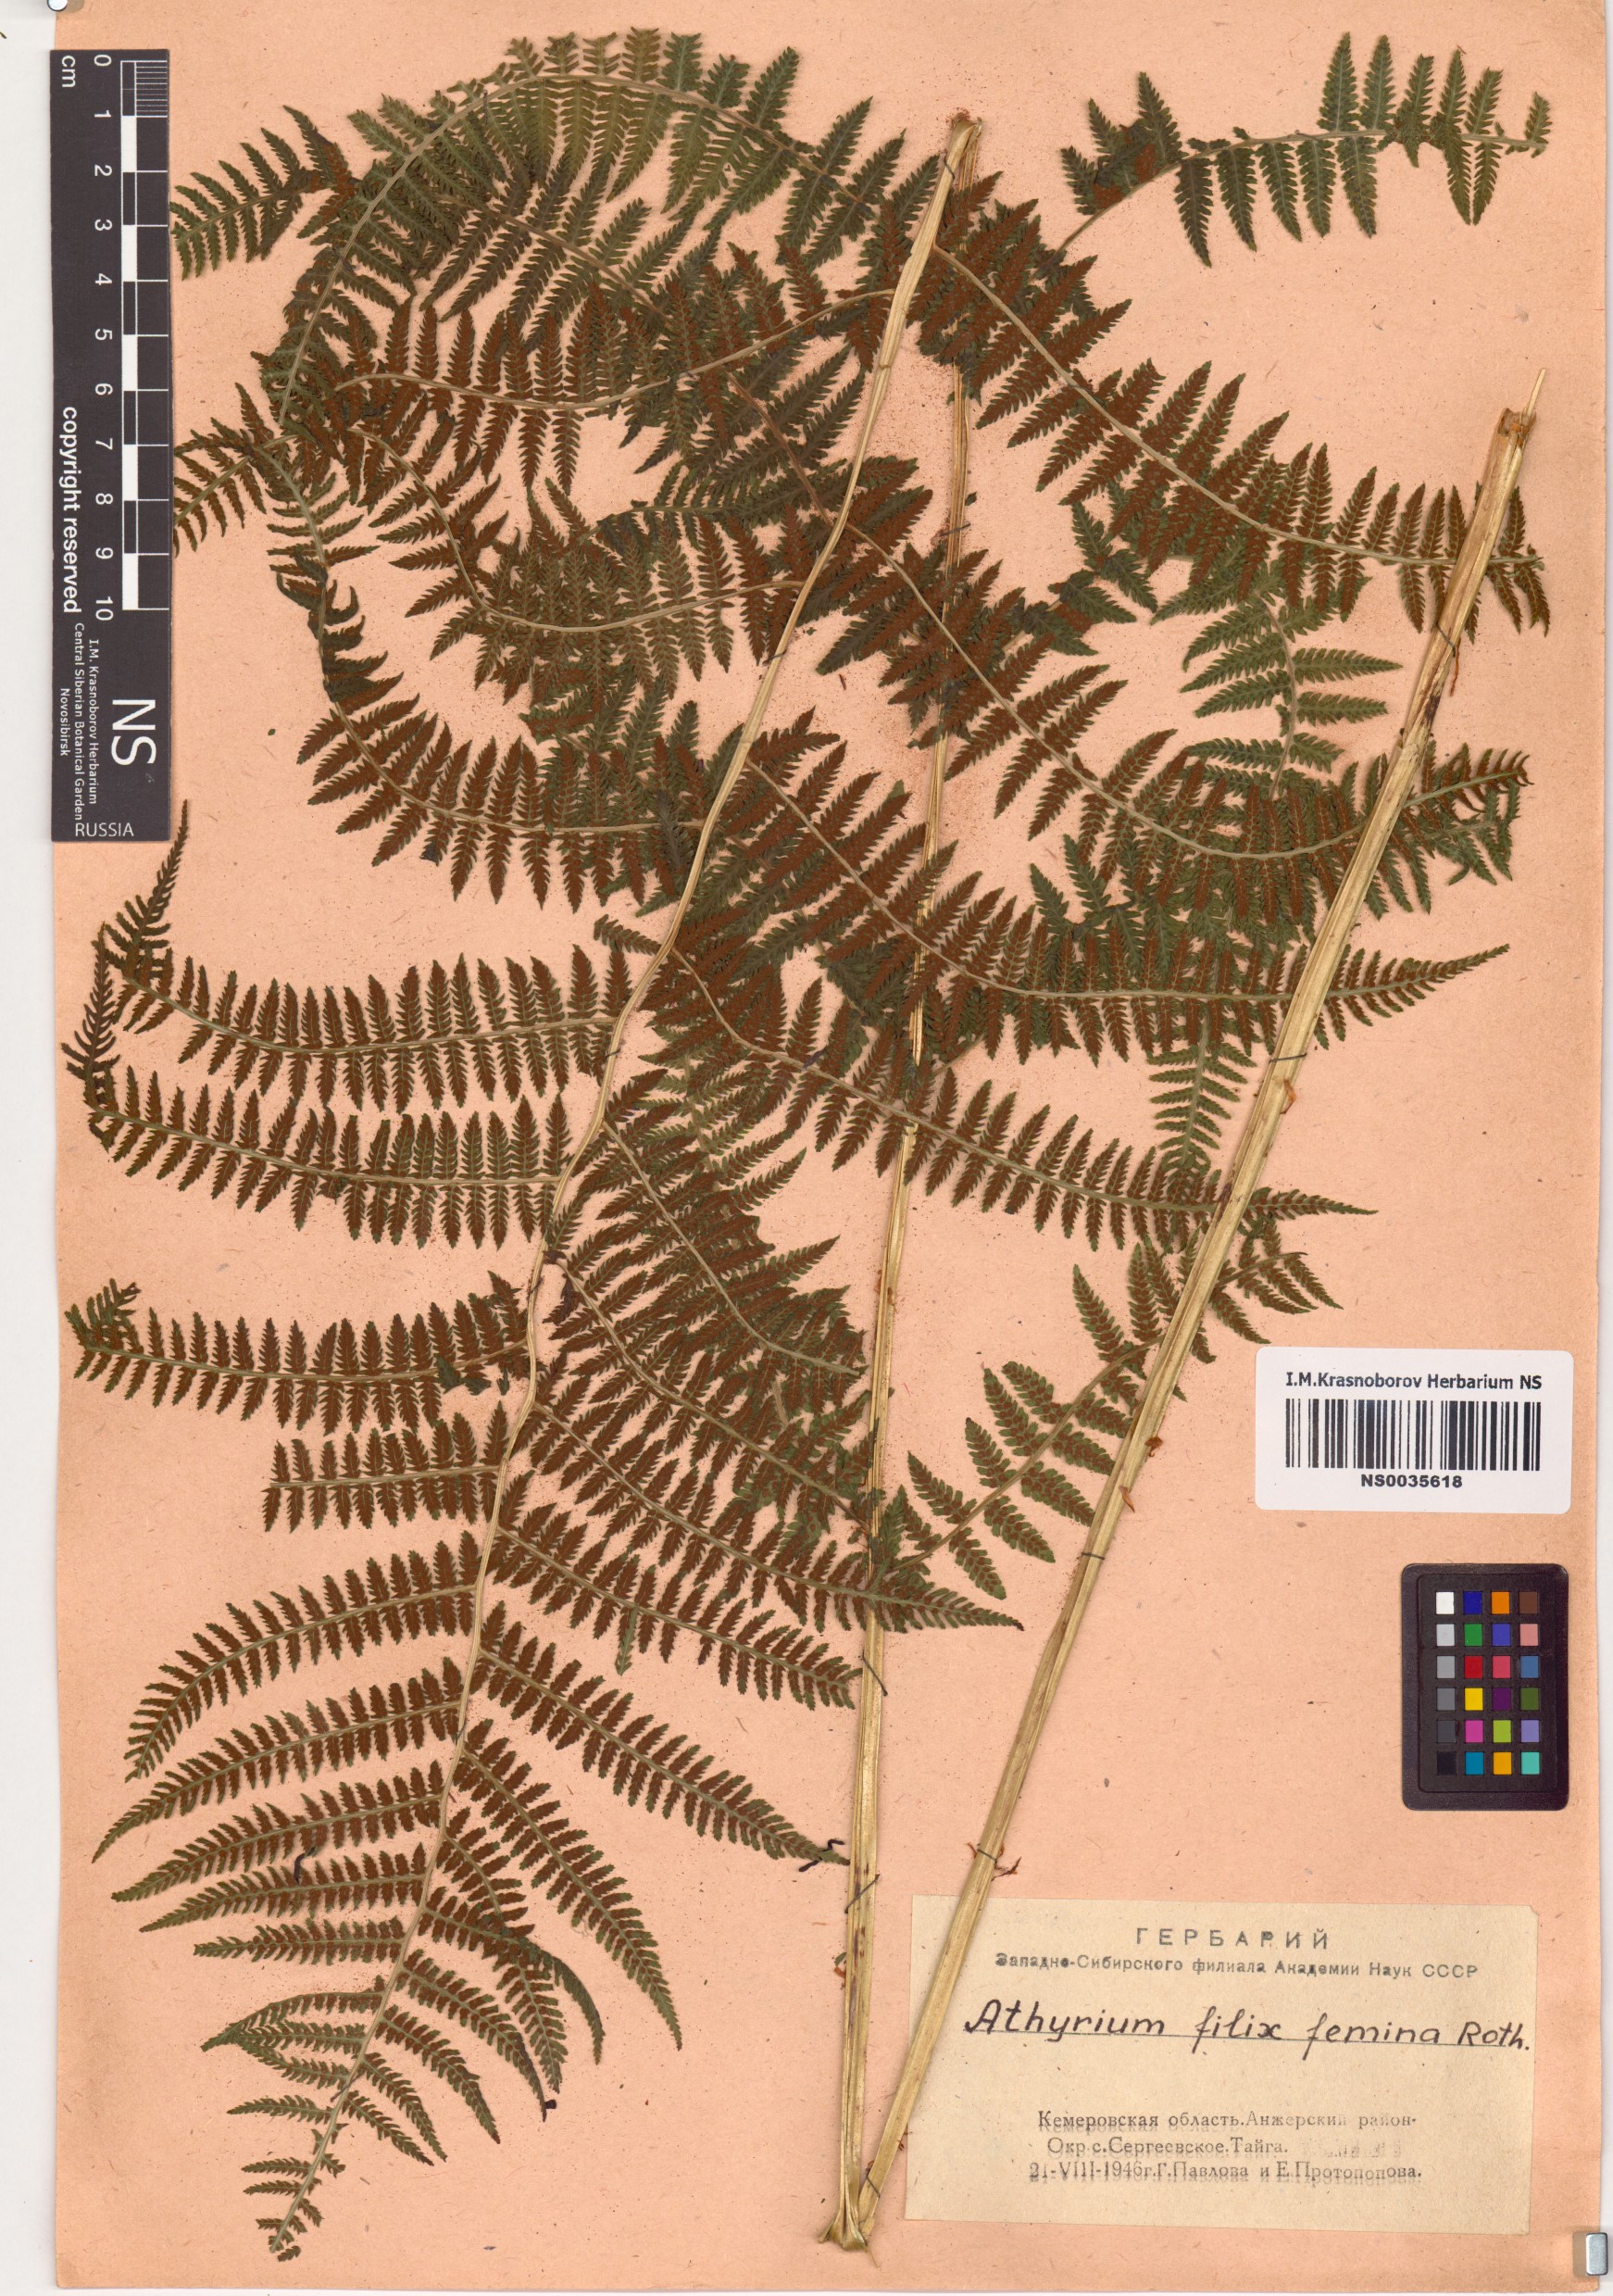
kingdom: Plantae
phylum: Tracheophyta
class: Polypodiopsida
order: Polypodiales
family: Athyriaceae
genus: Athyrium
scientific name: Athyrium filix-femina
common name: Lady fern
